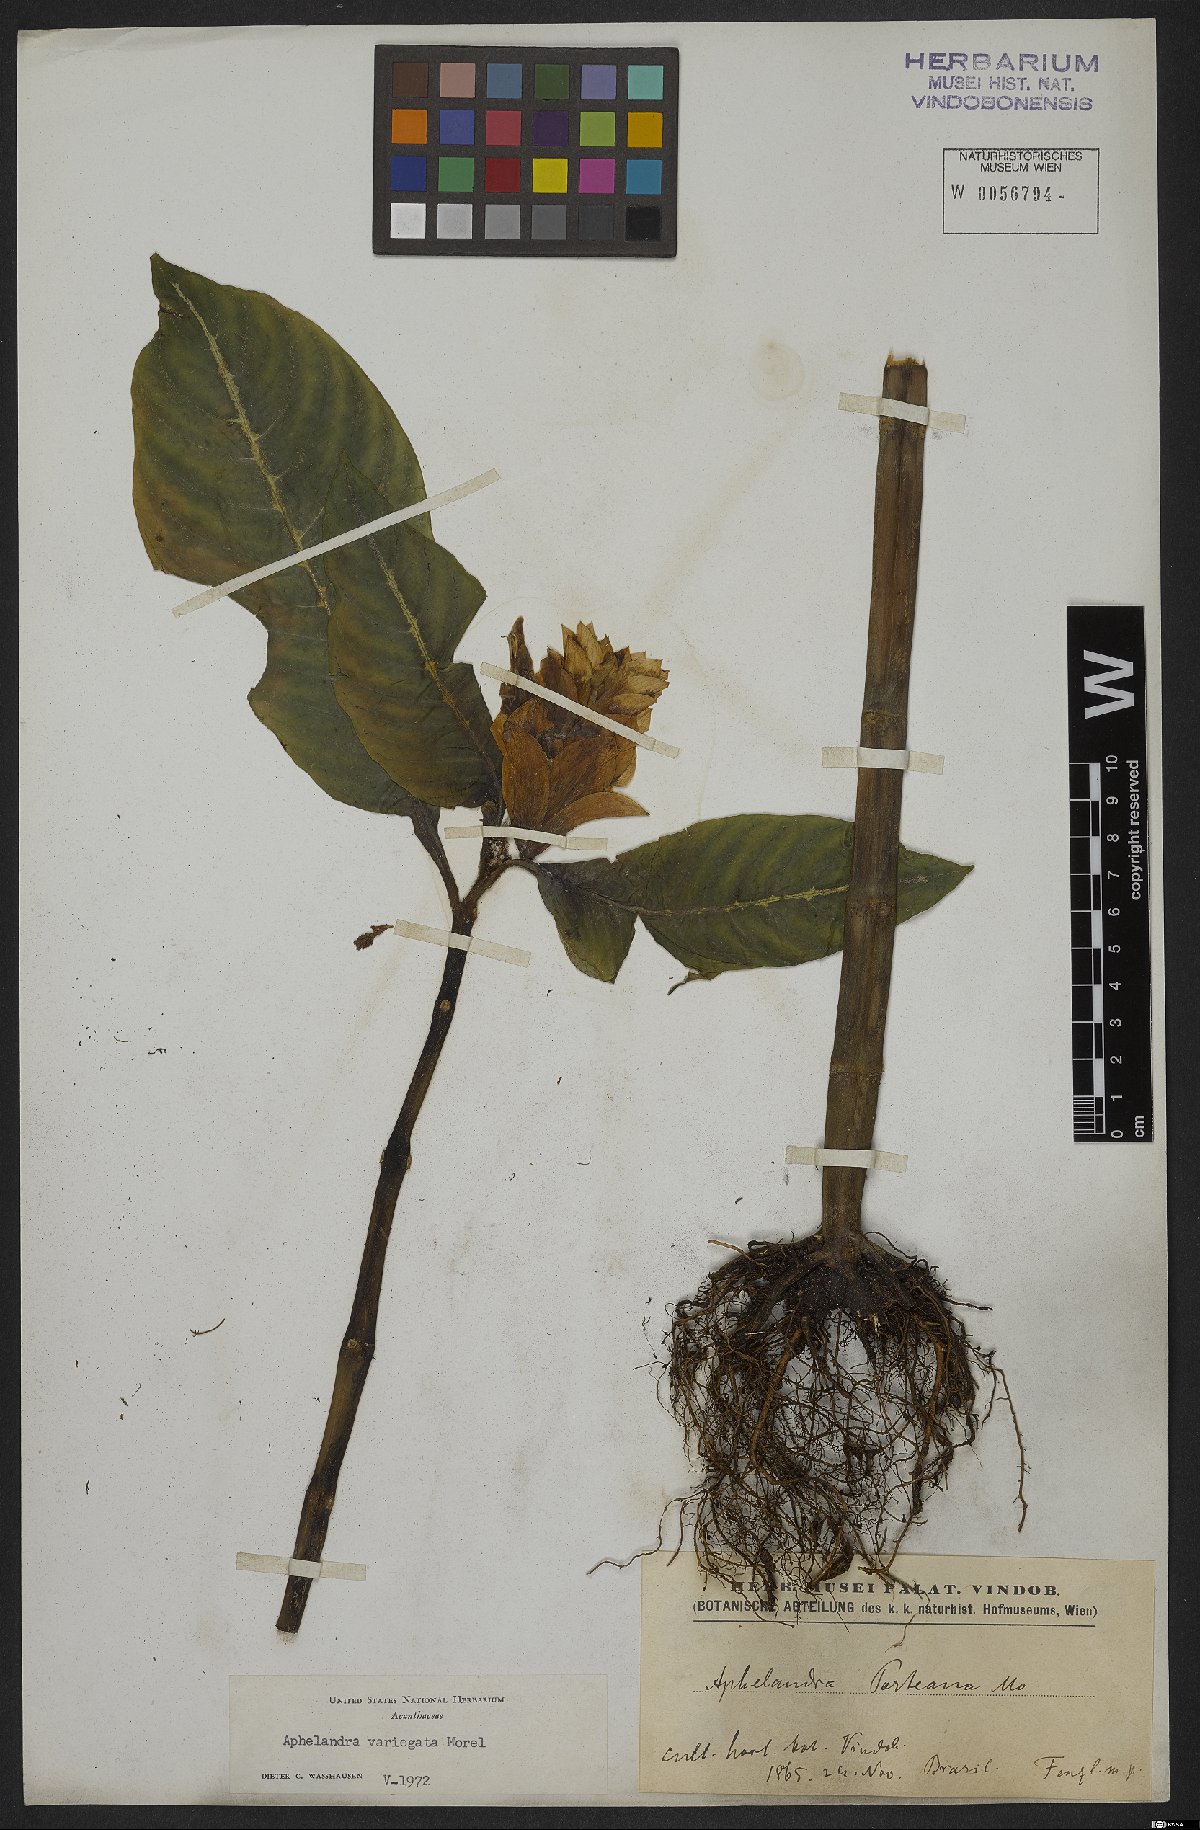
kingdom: Plantae
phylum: Tracheophyta
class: Magnoliopsida
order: Lamiales
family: Acanthaceae
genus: Aphelandra
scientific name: Aphelandra variegata
